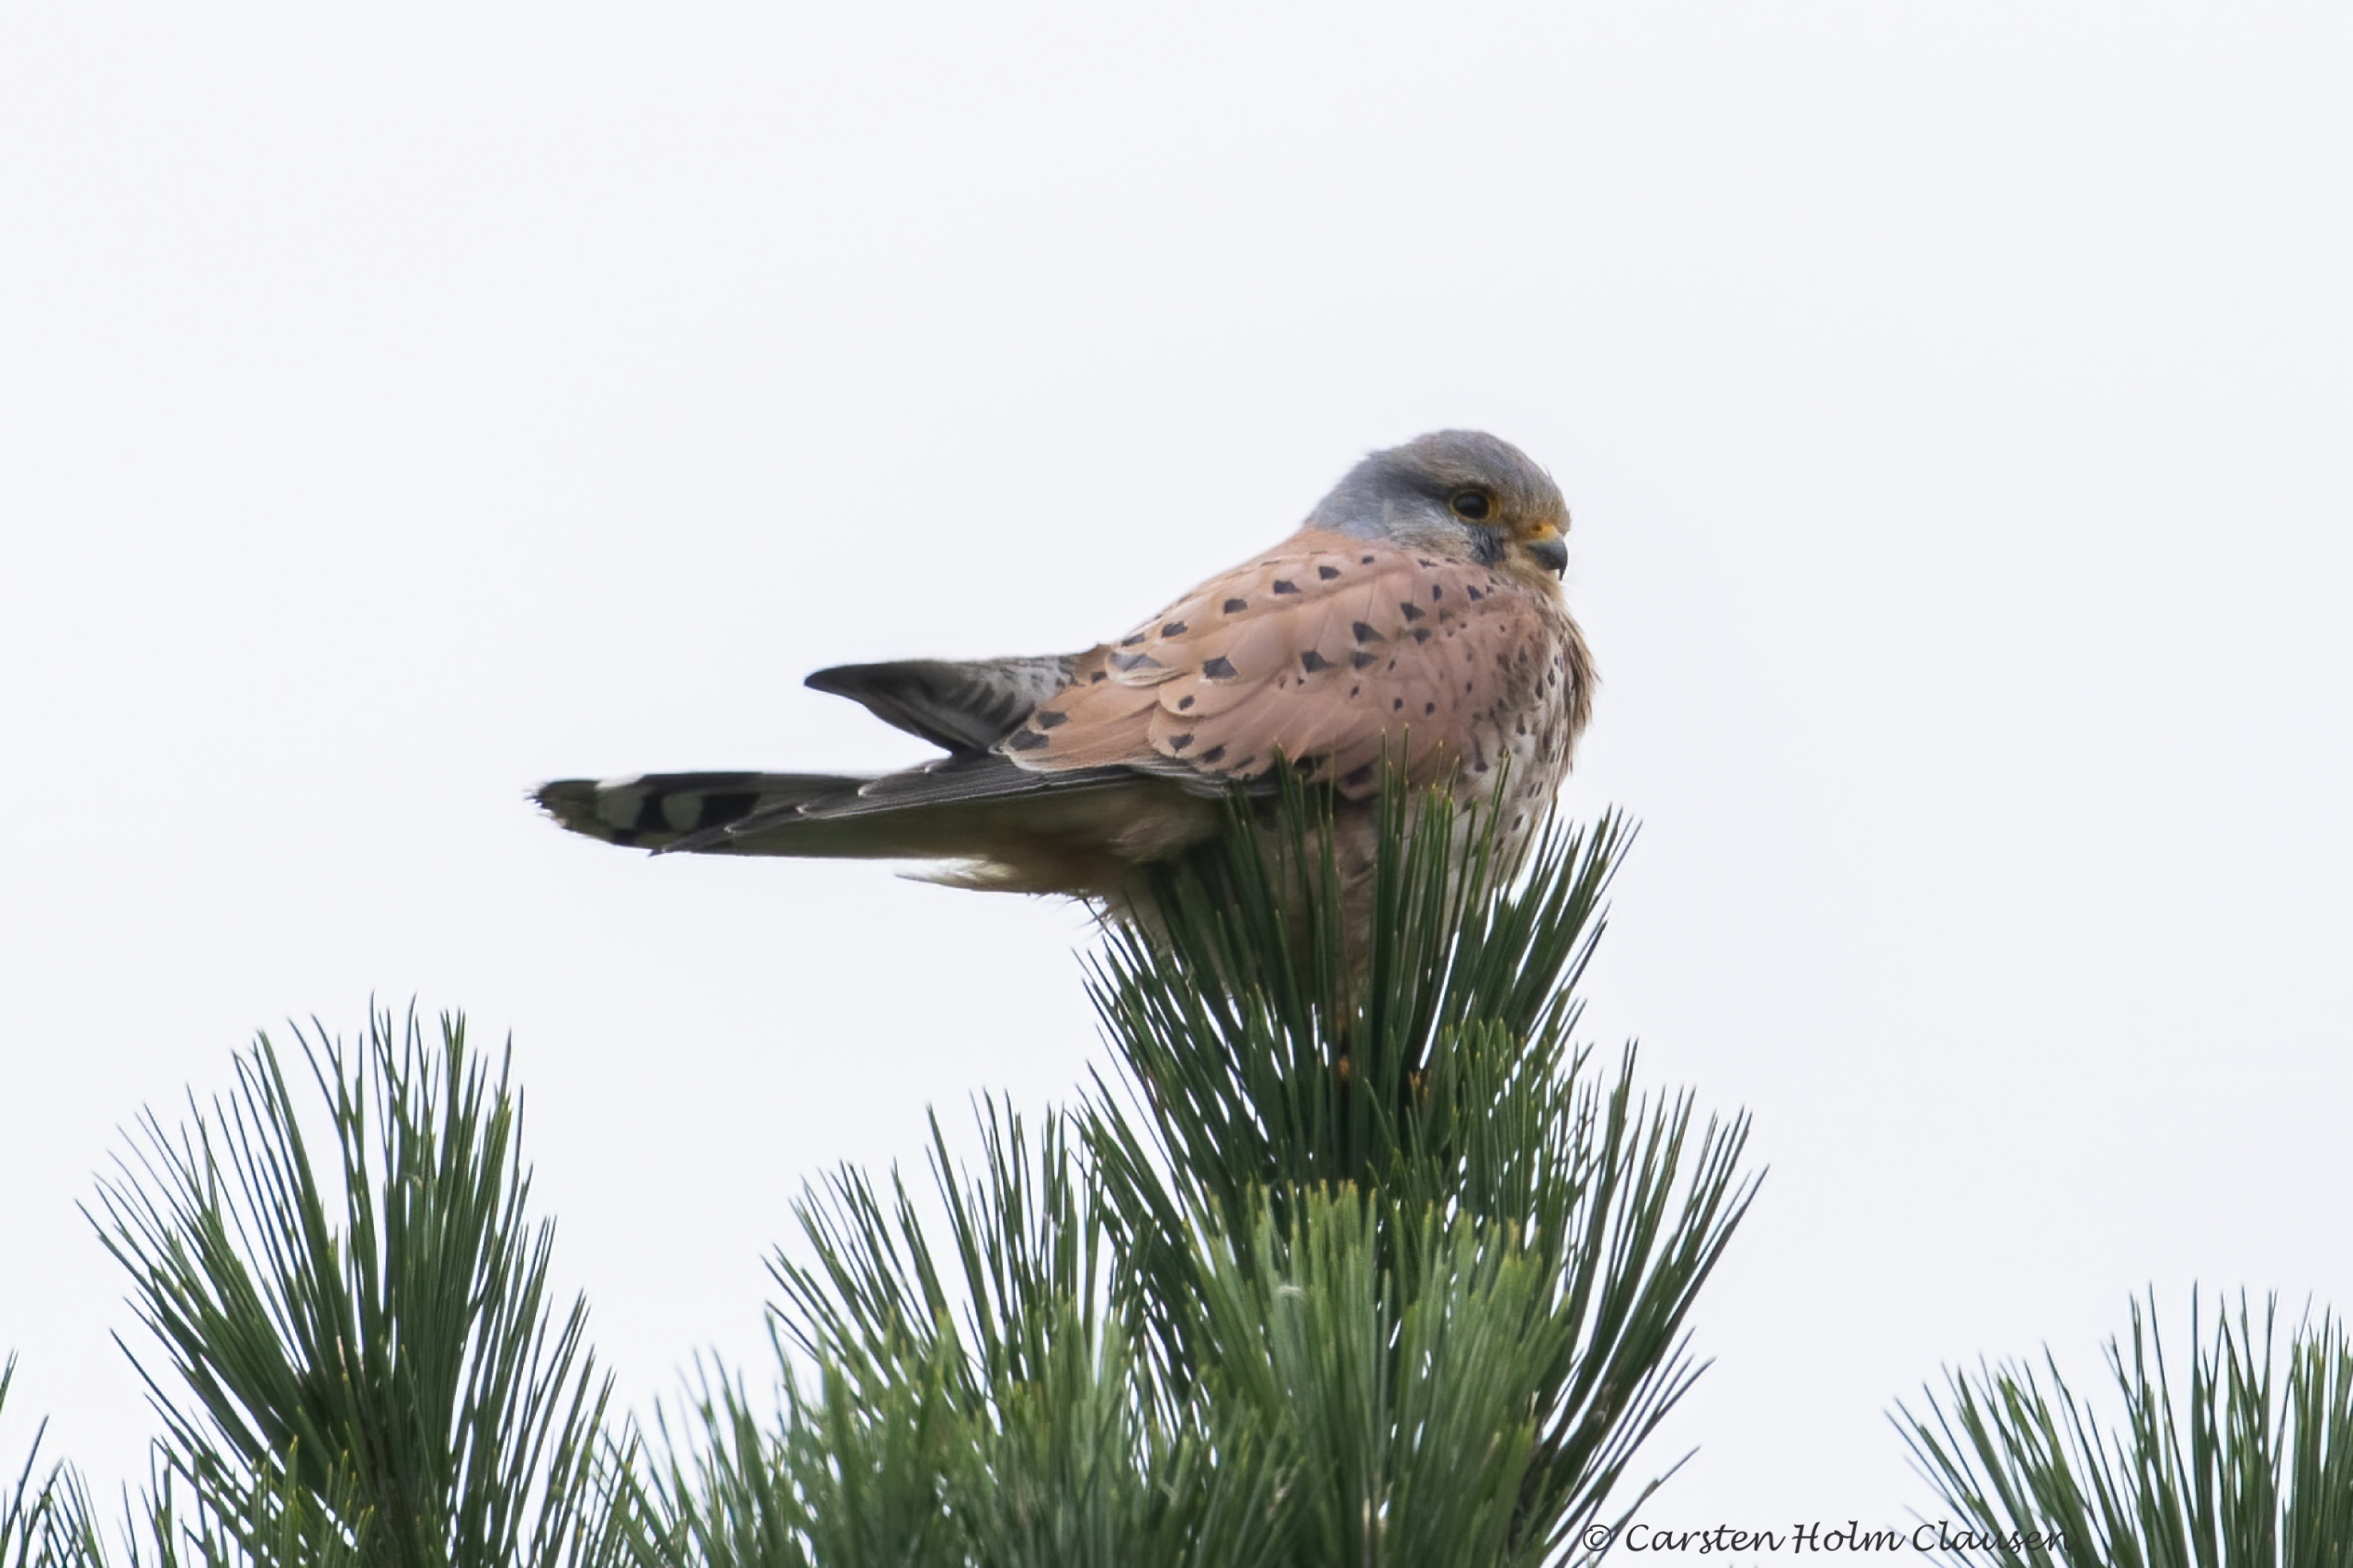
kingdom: Animalia
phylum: Chordata
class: Aves
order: Falconiformes
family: Falconidae
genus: Falco
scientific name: Falco tinnunculus
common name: Tårnfalk
